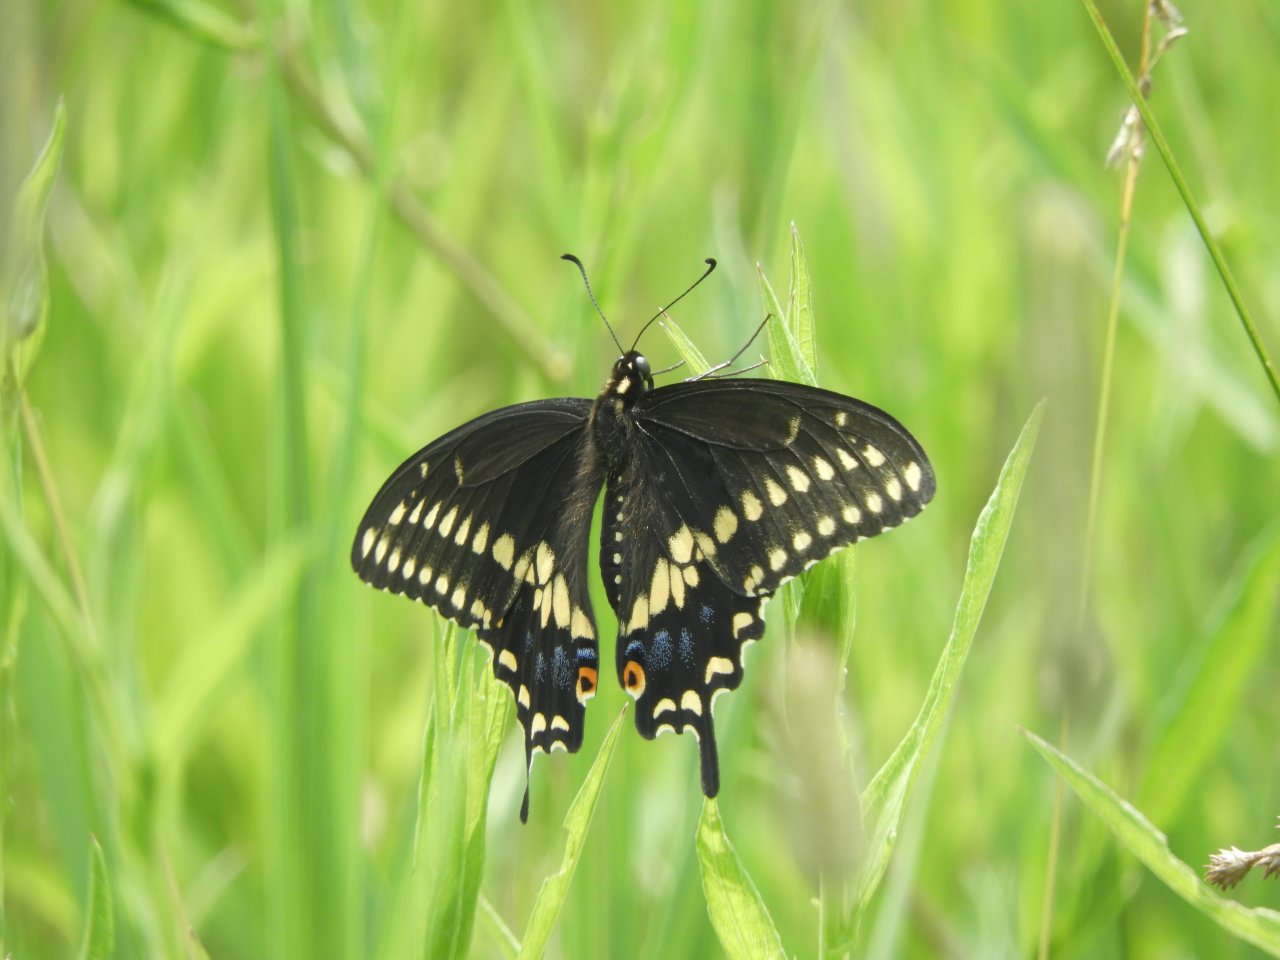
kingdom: Animalia
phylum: Arthropoda
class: Insecta
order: Lepidoptera
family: Papilionidae
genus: Papilio
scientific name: Papilio polyxenes
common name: Black Swallowtail
